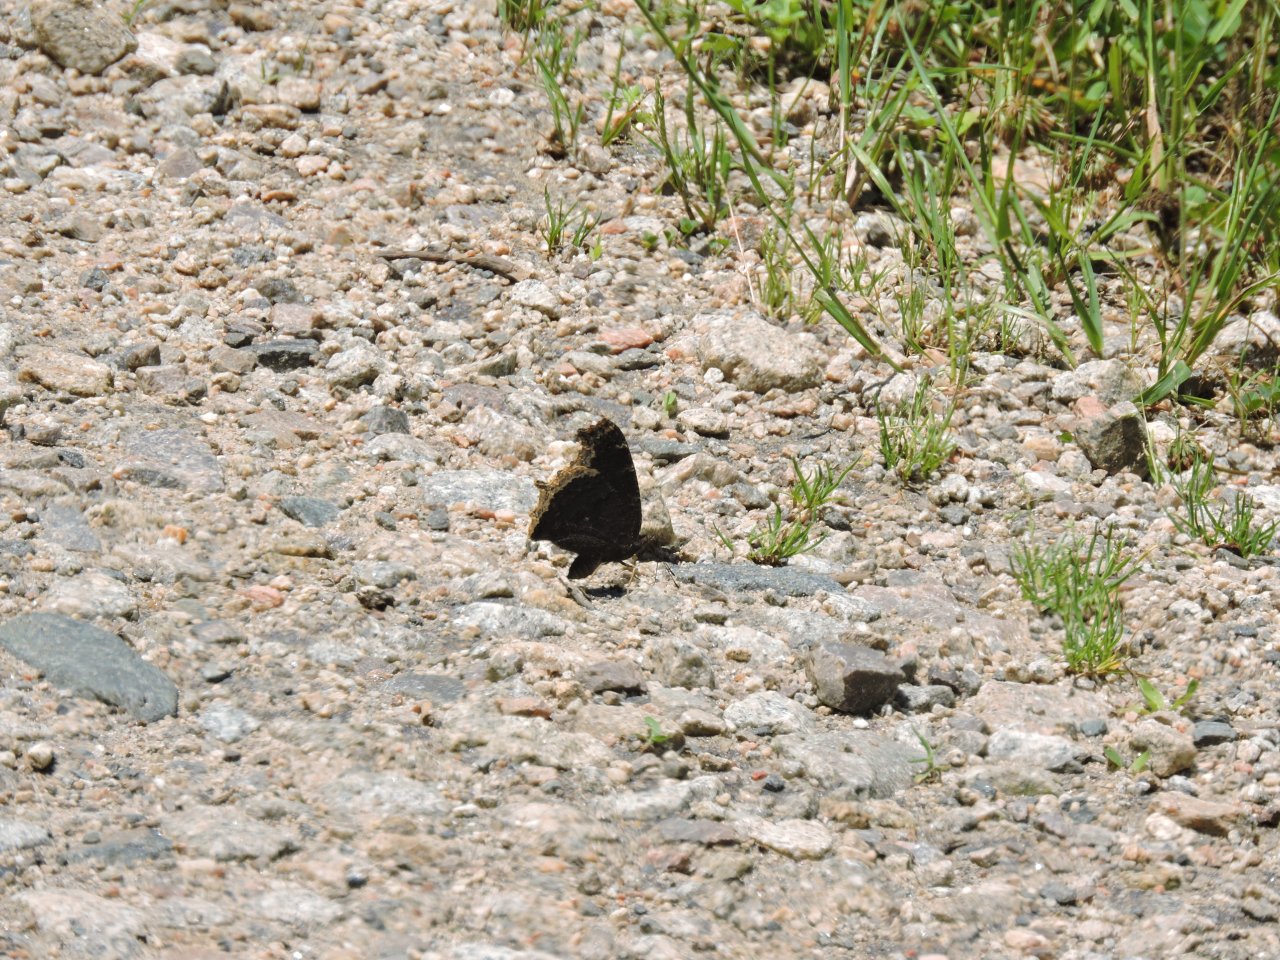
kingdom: Animalia
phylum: Arthropoda
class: Insecta
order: Lepidoptera
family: Nymphalidae
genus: Nymphalis
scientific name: Nymphalis antiopa
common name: Mourning Cloak
